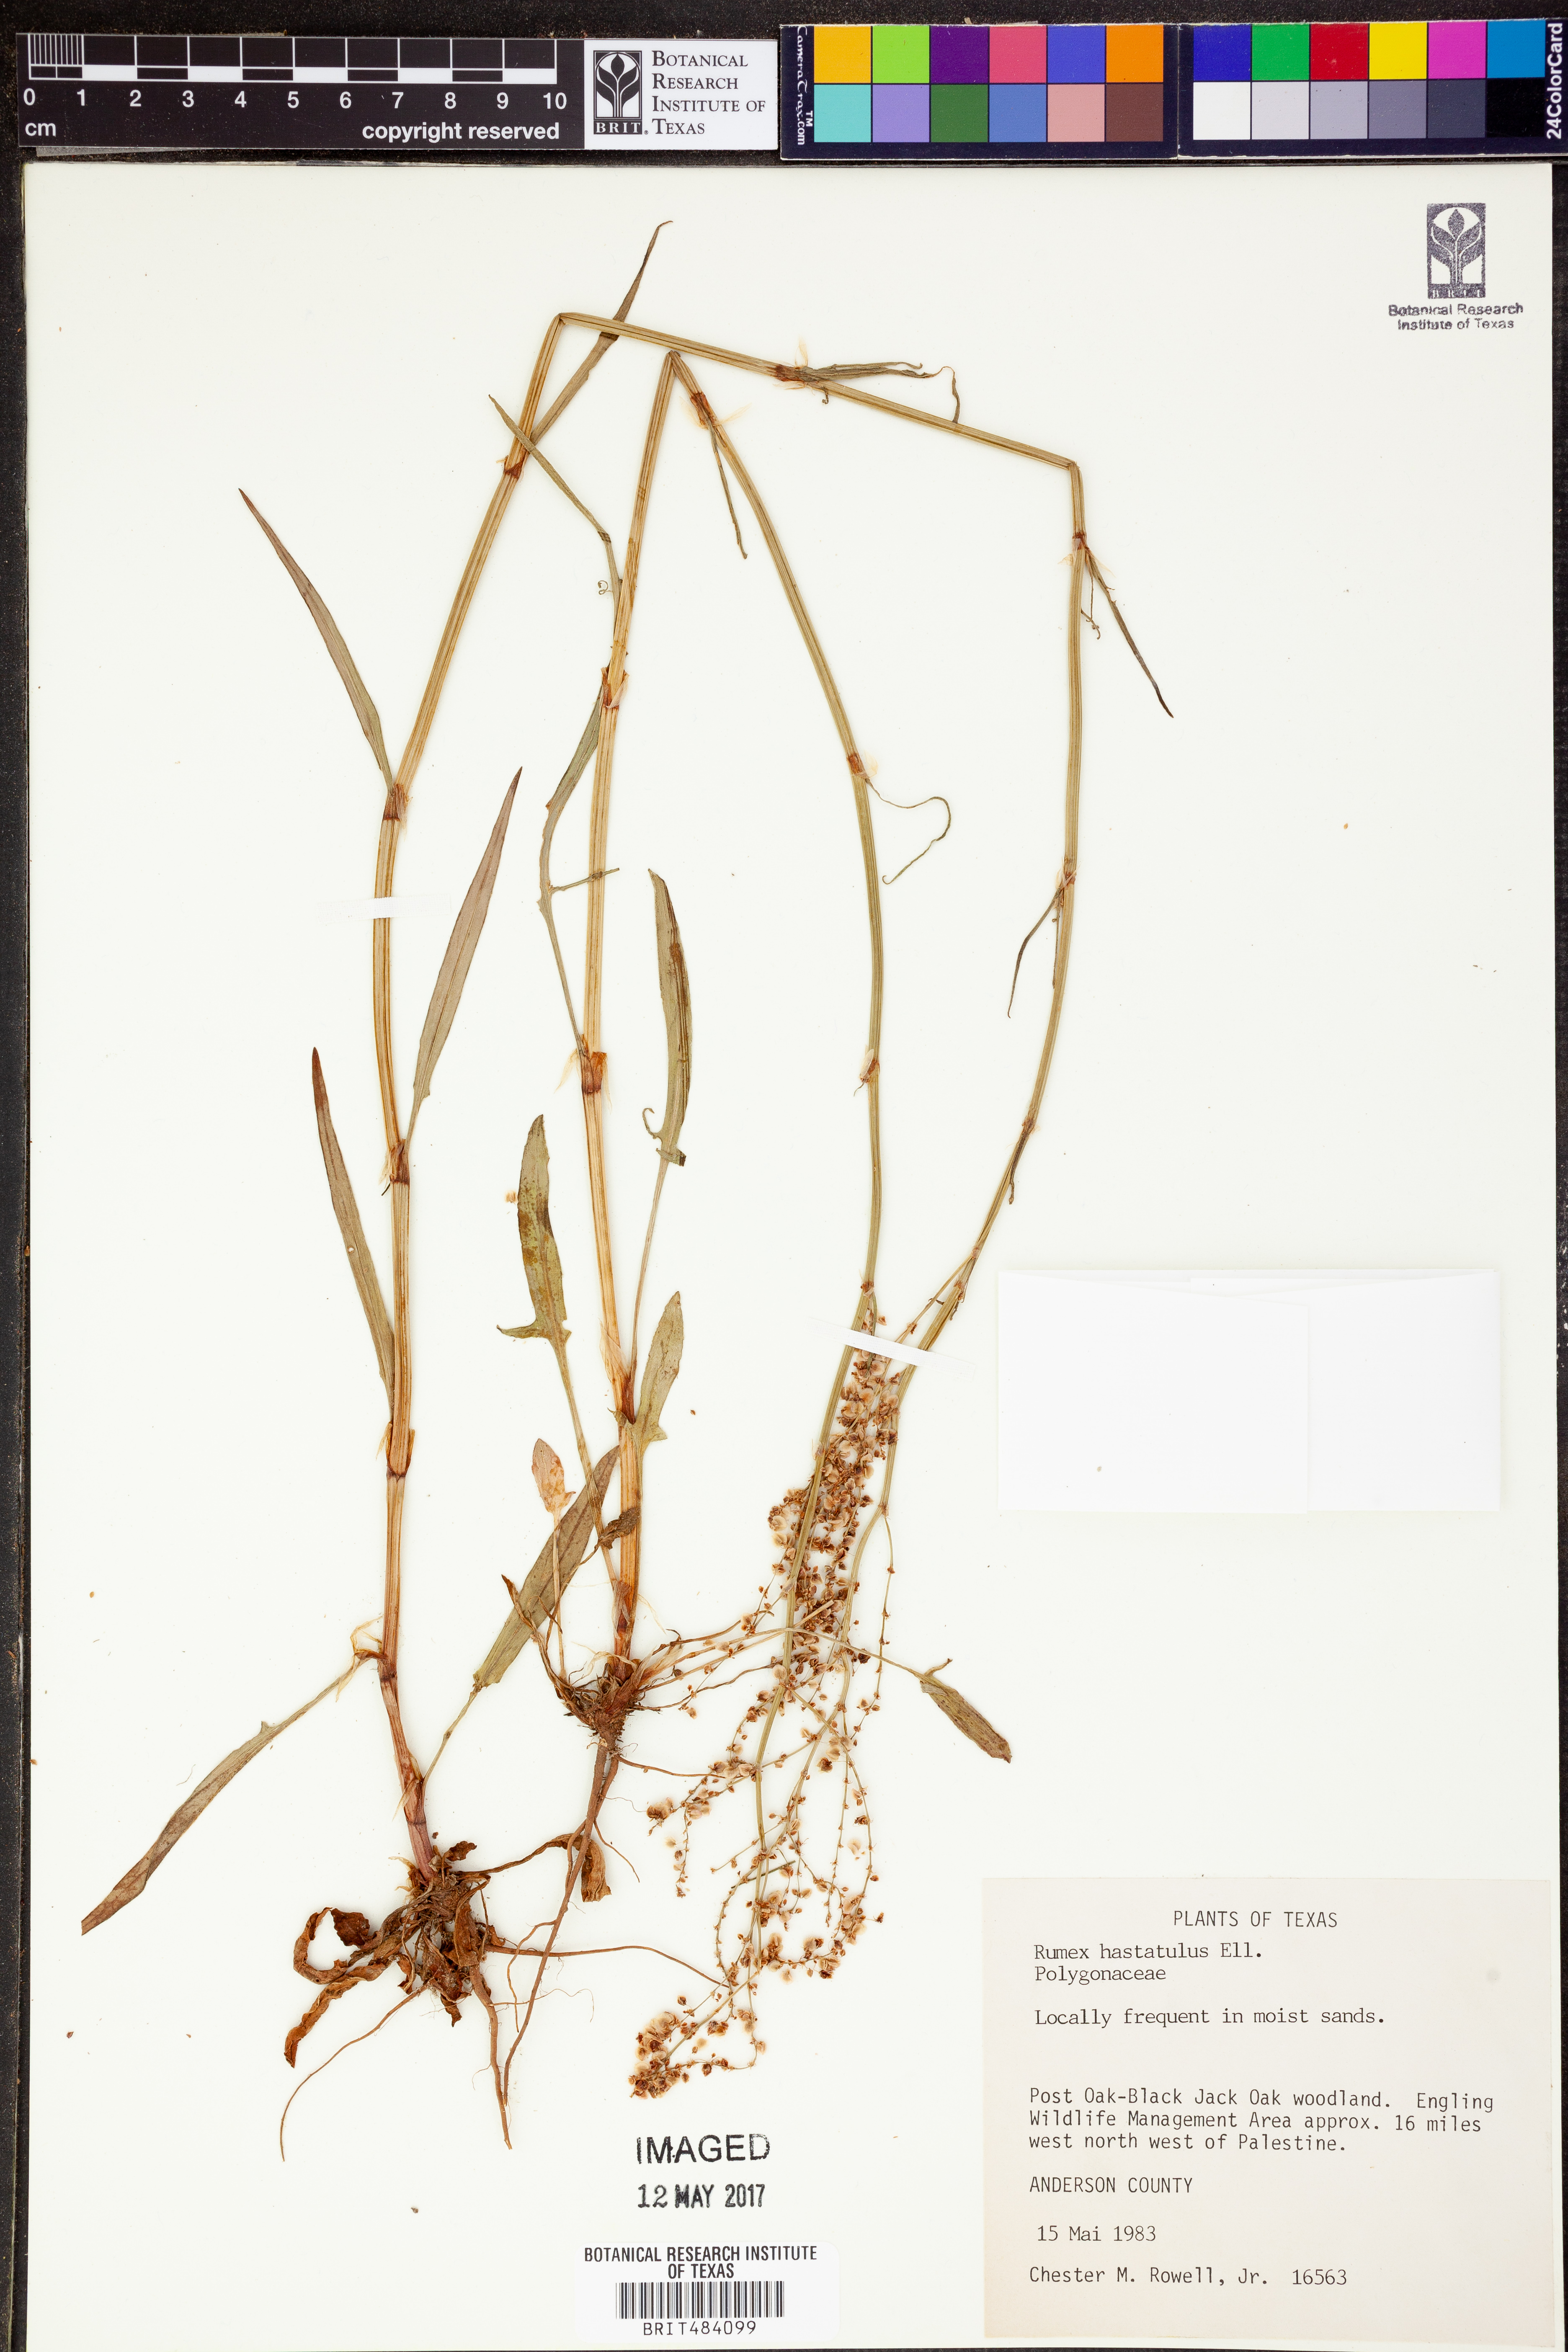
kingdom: Plantae
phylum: Tracheophyta
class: Magnoliopsida
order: Caryophyllales
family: Polygonaceae
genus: Rumex
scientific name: Rumex hastatulus
